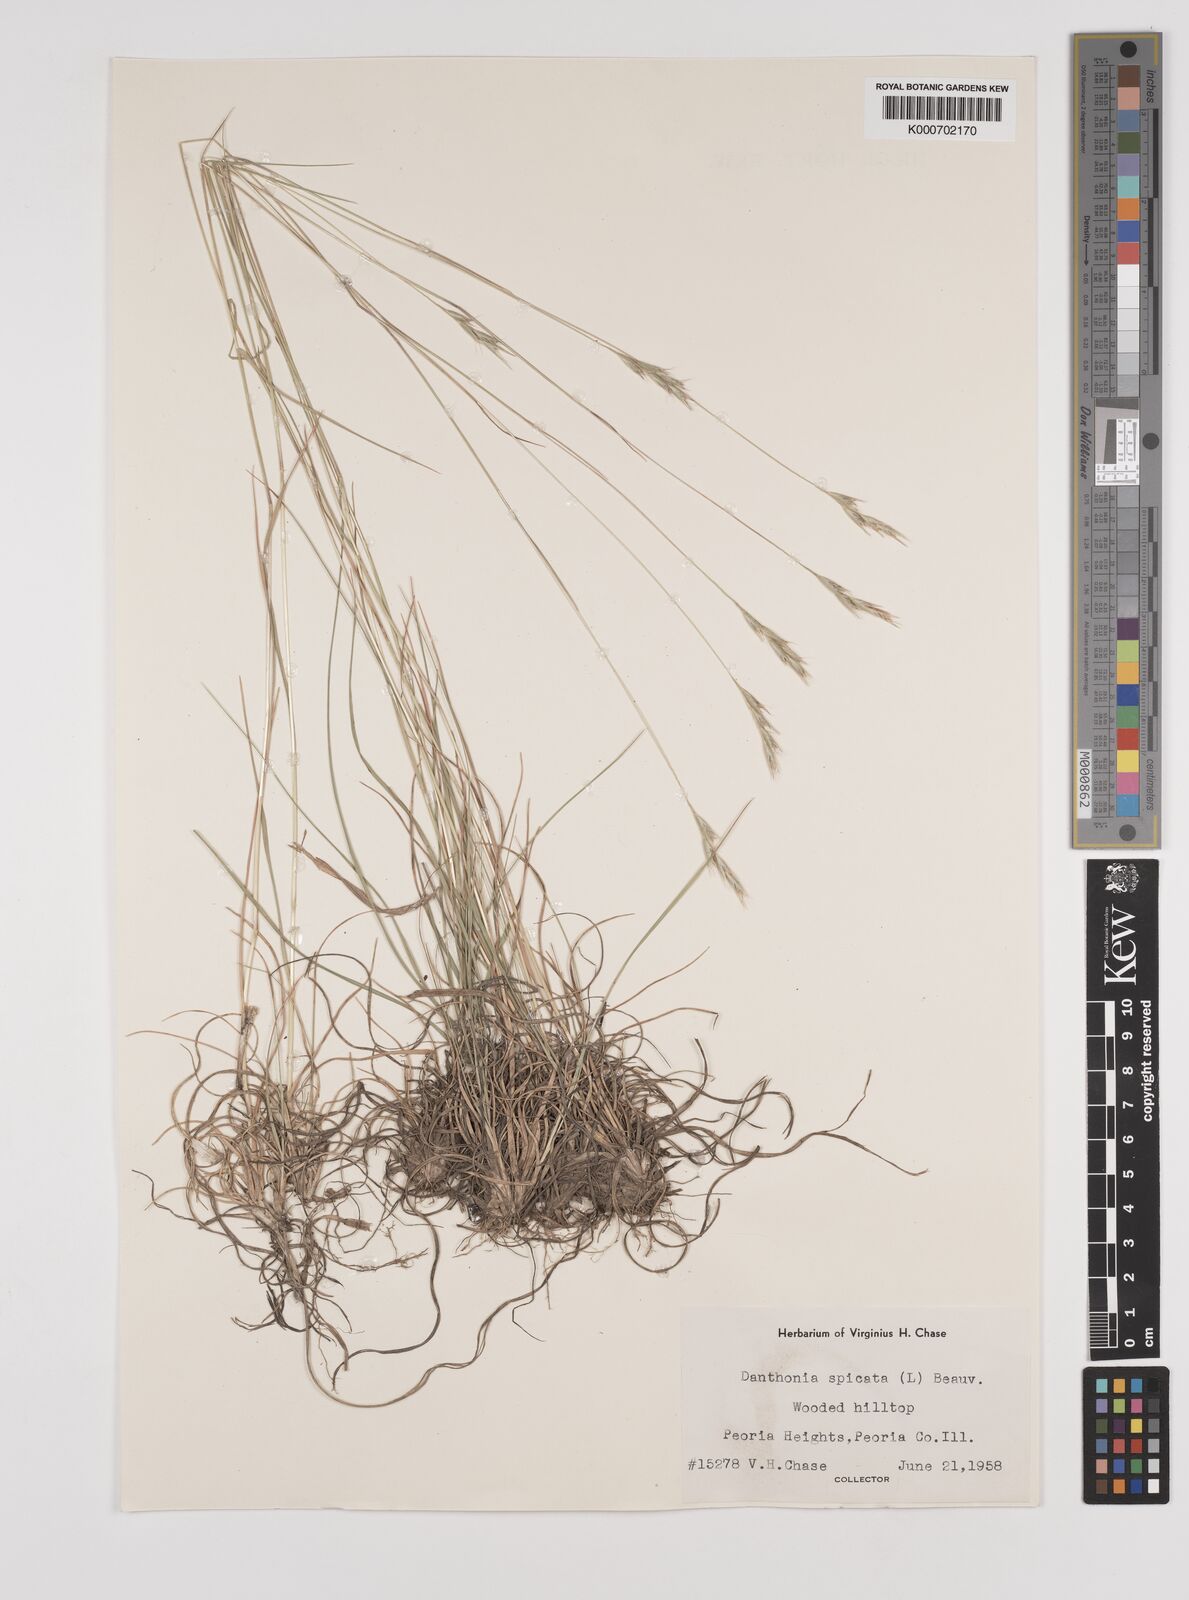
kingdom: Plantae
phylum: Tracheophyta
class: Liliopsida
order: Poales
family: Poaceae
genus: Danthonia
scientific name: Danthonia spicata
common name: Common wild oatgrass
